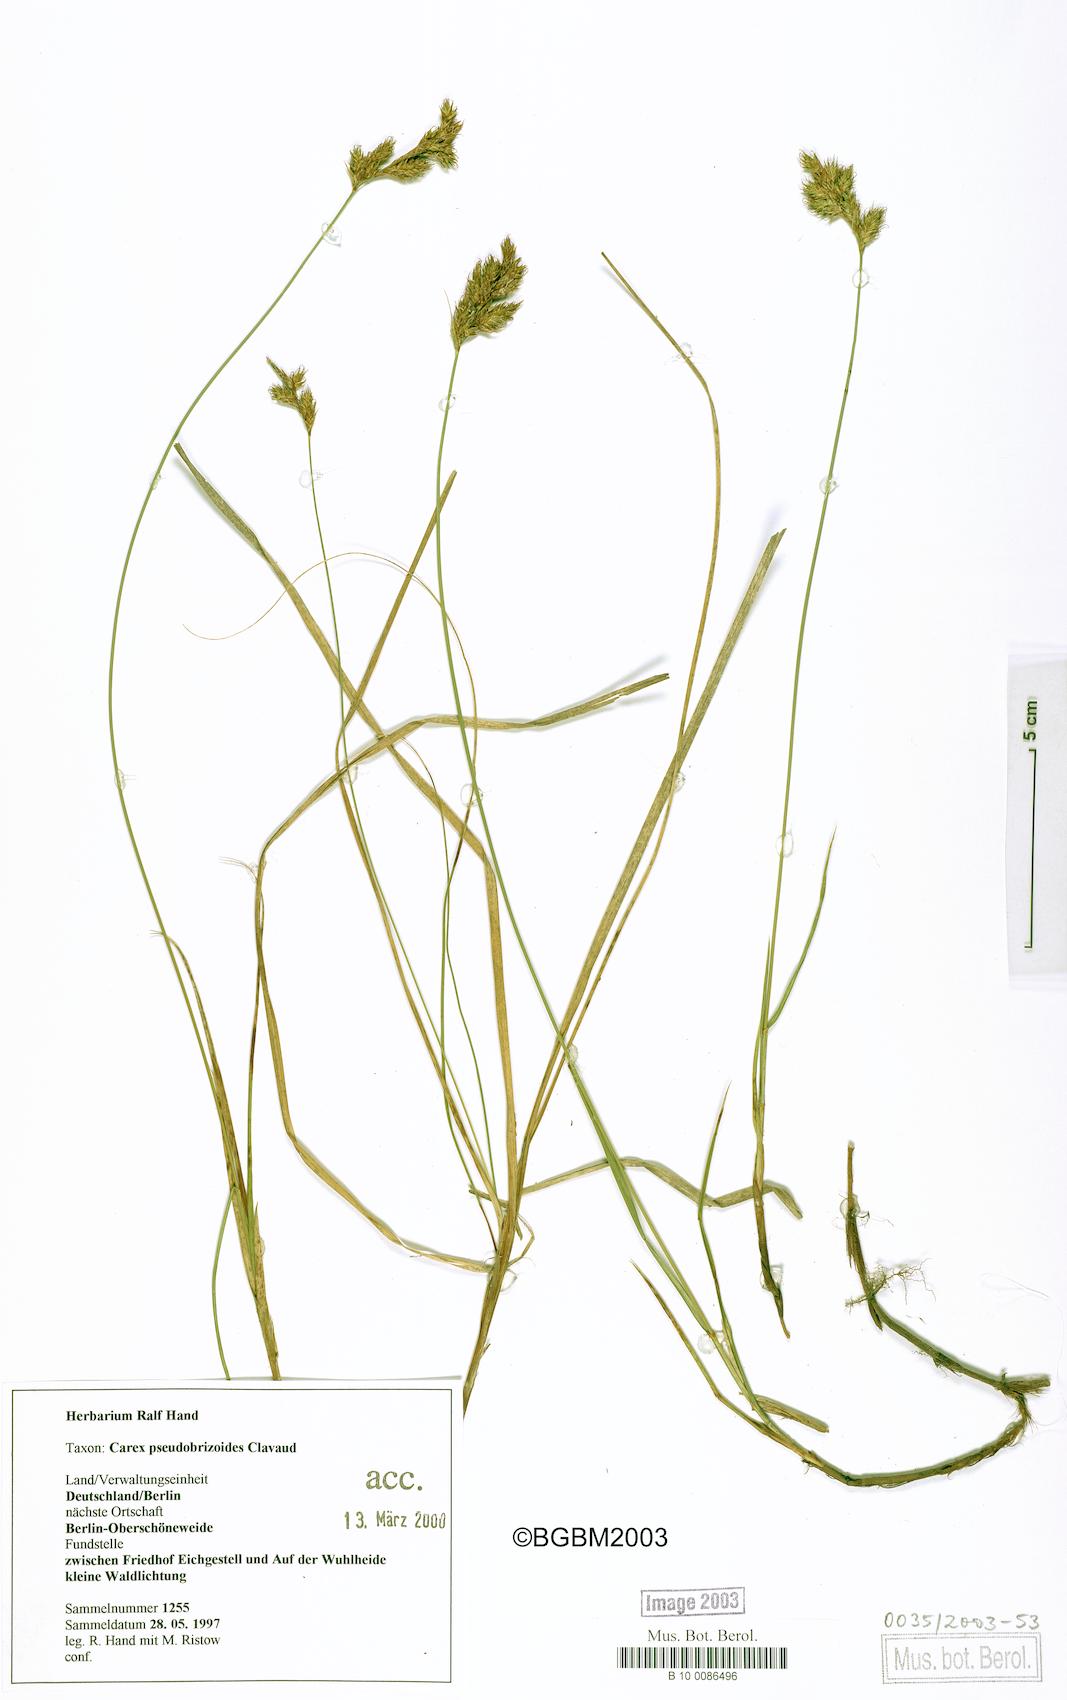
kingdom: Plantae
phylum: Tracheophyta
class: Liliopsida
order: Poales
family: Cyperaceae
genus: Carex
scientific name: Carex pseudobrizoides
